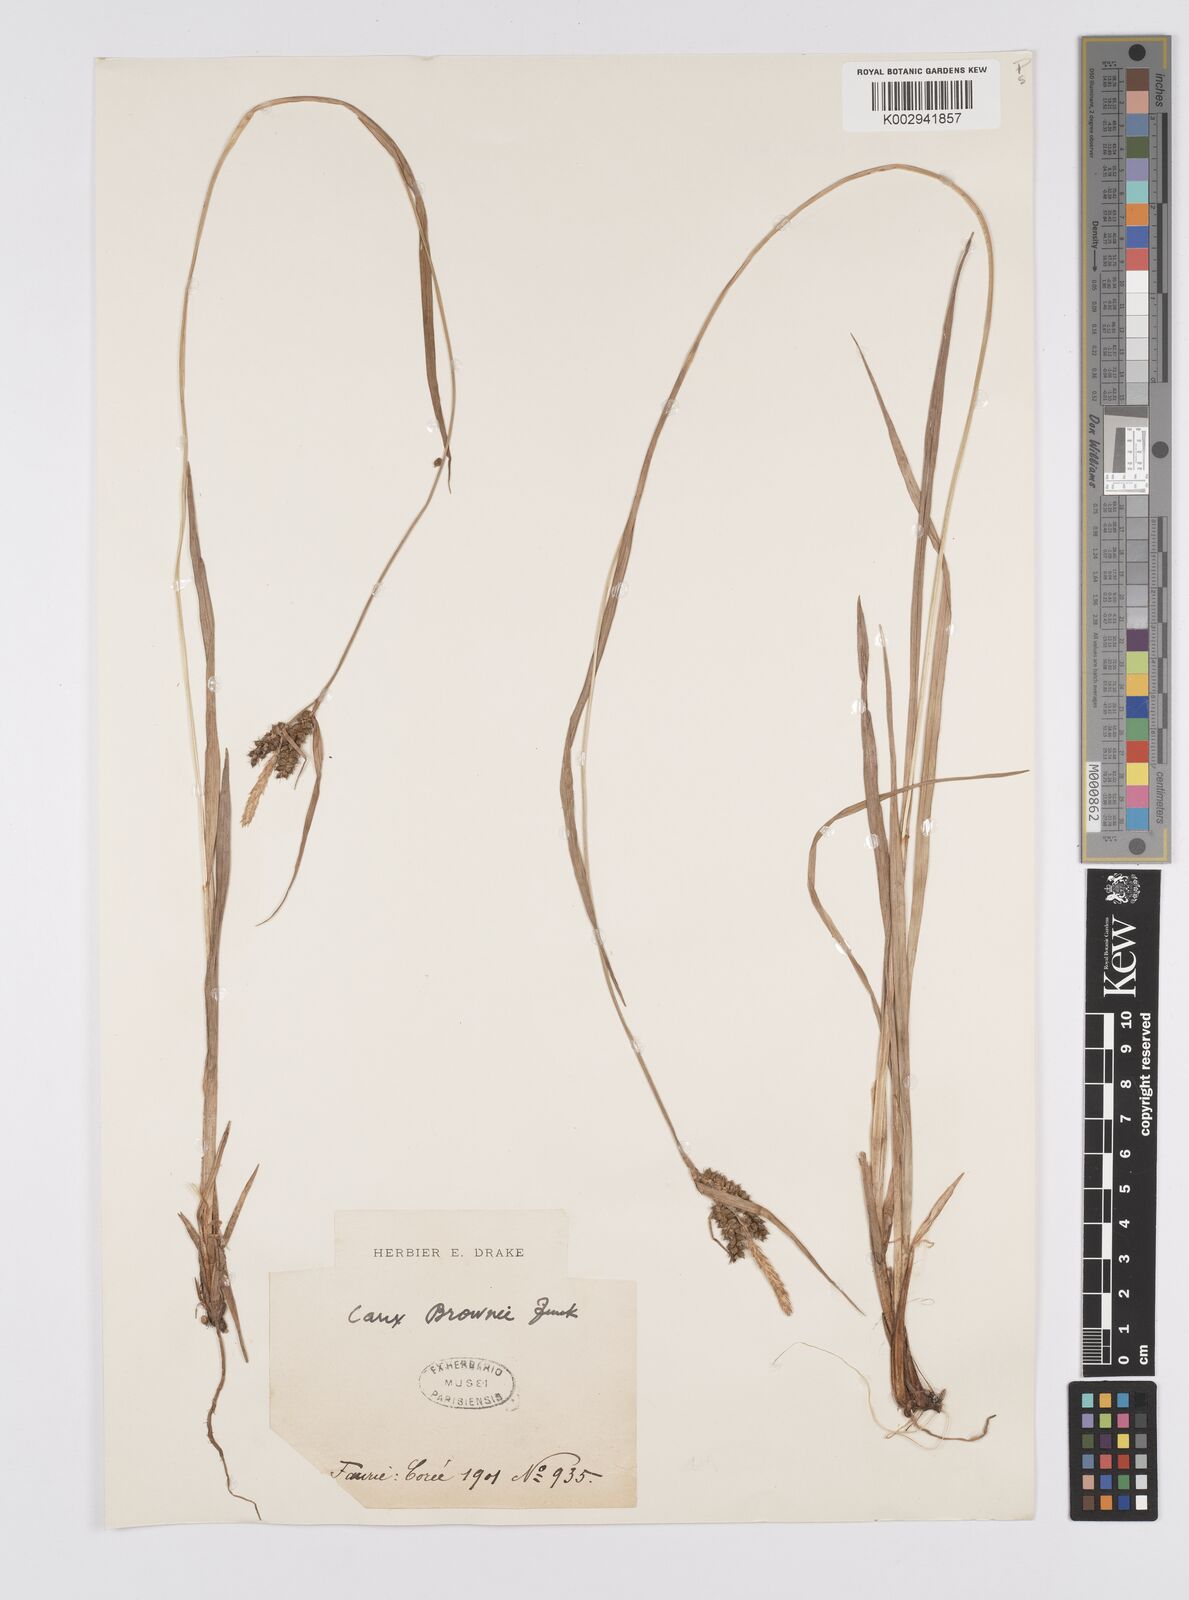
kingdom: Plantae
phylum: Tracheophyta
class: Liliopsida
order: Poales
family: Cyperaceae
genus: Carex
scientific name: Carex brownii
